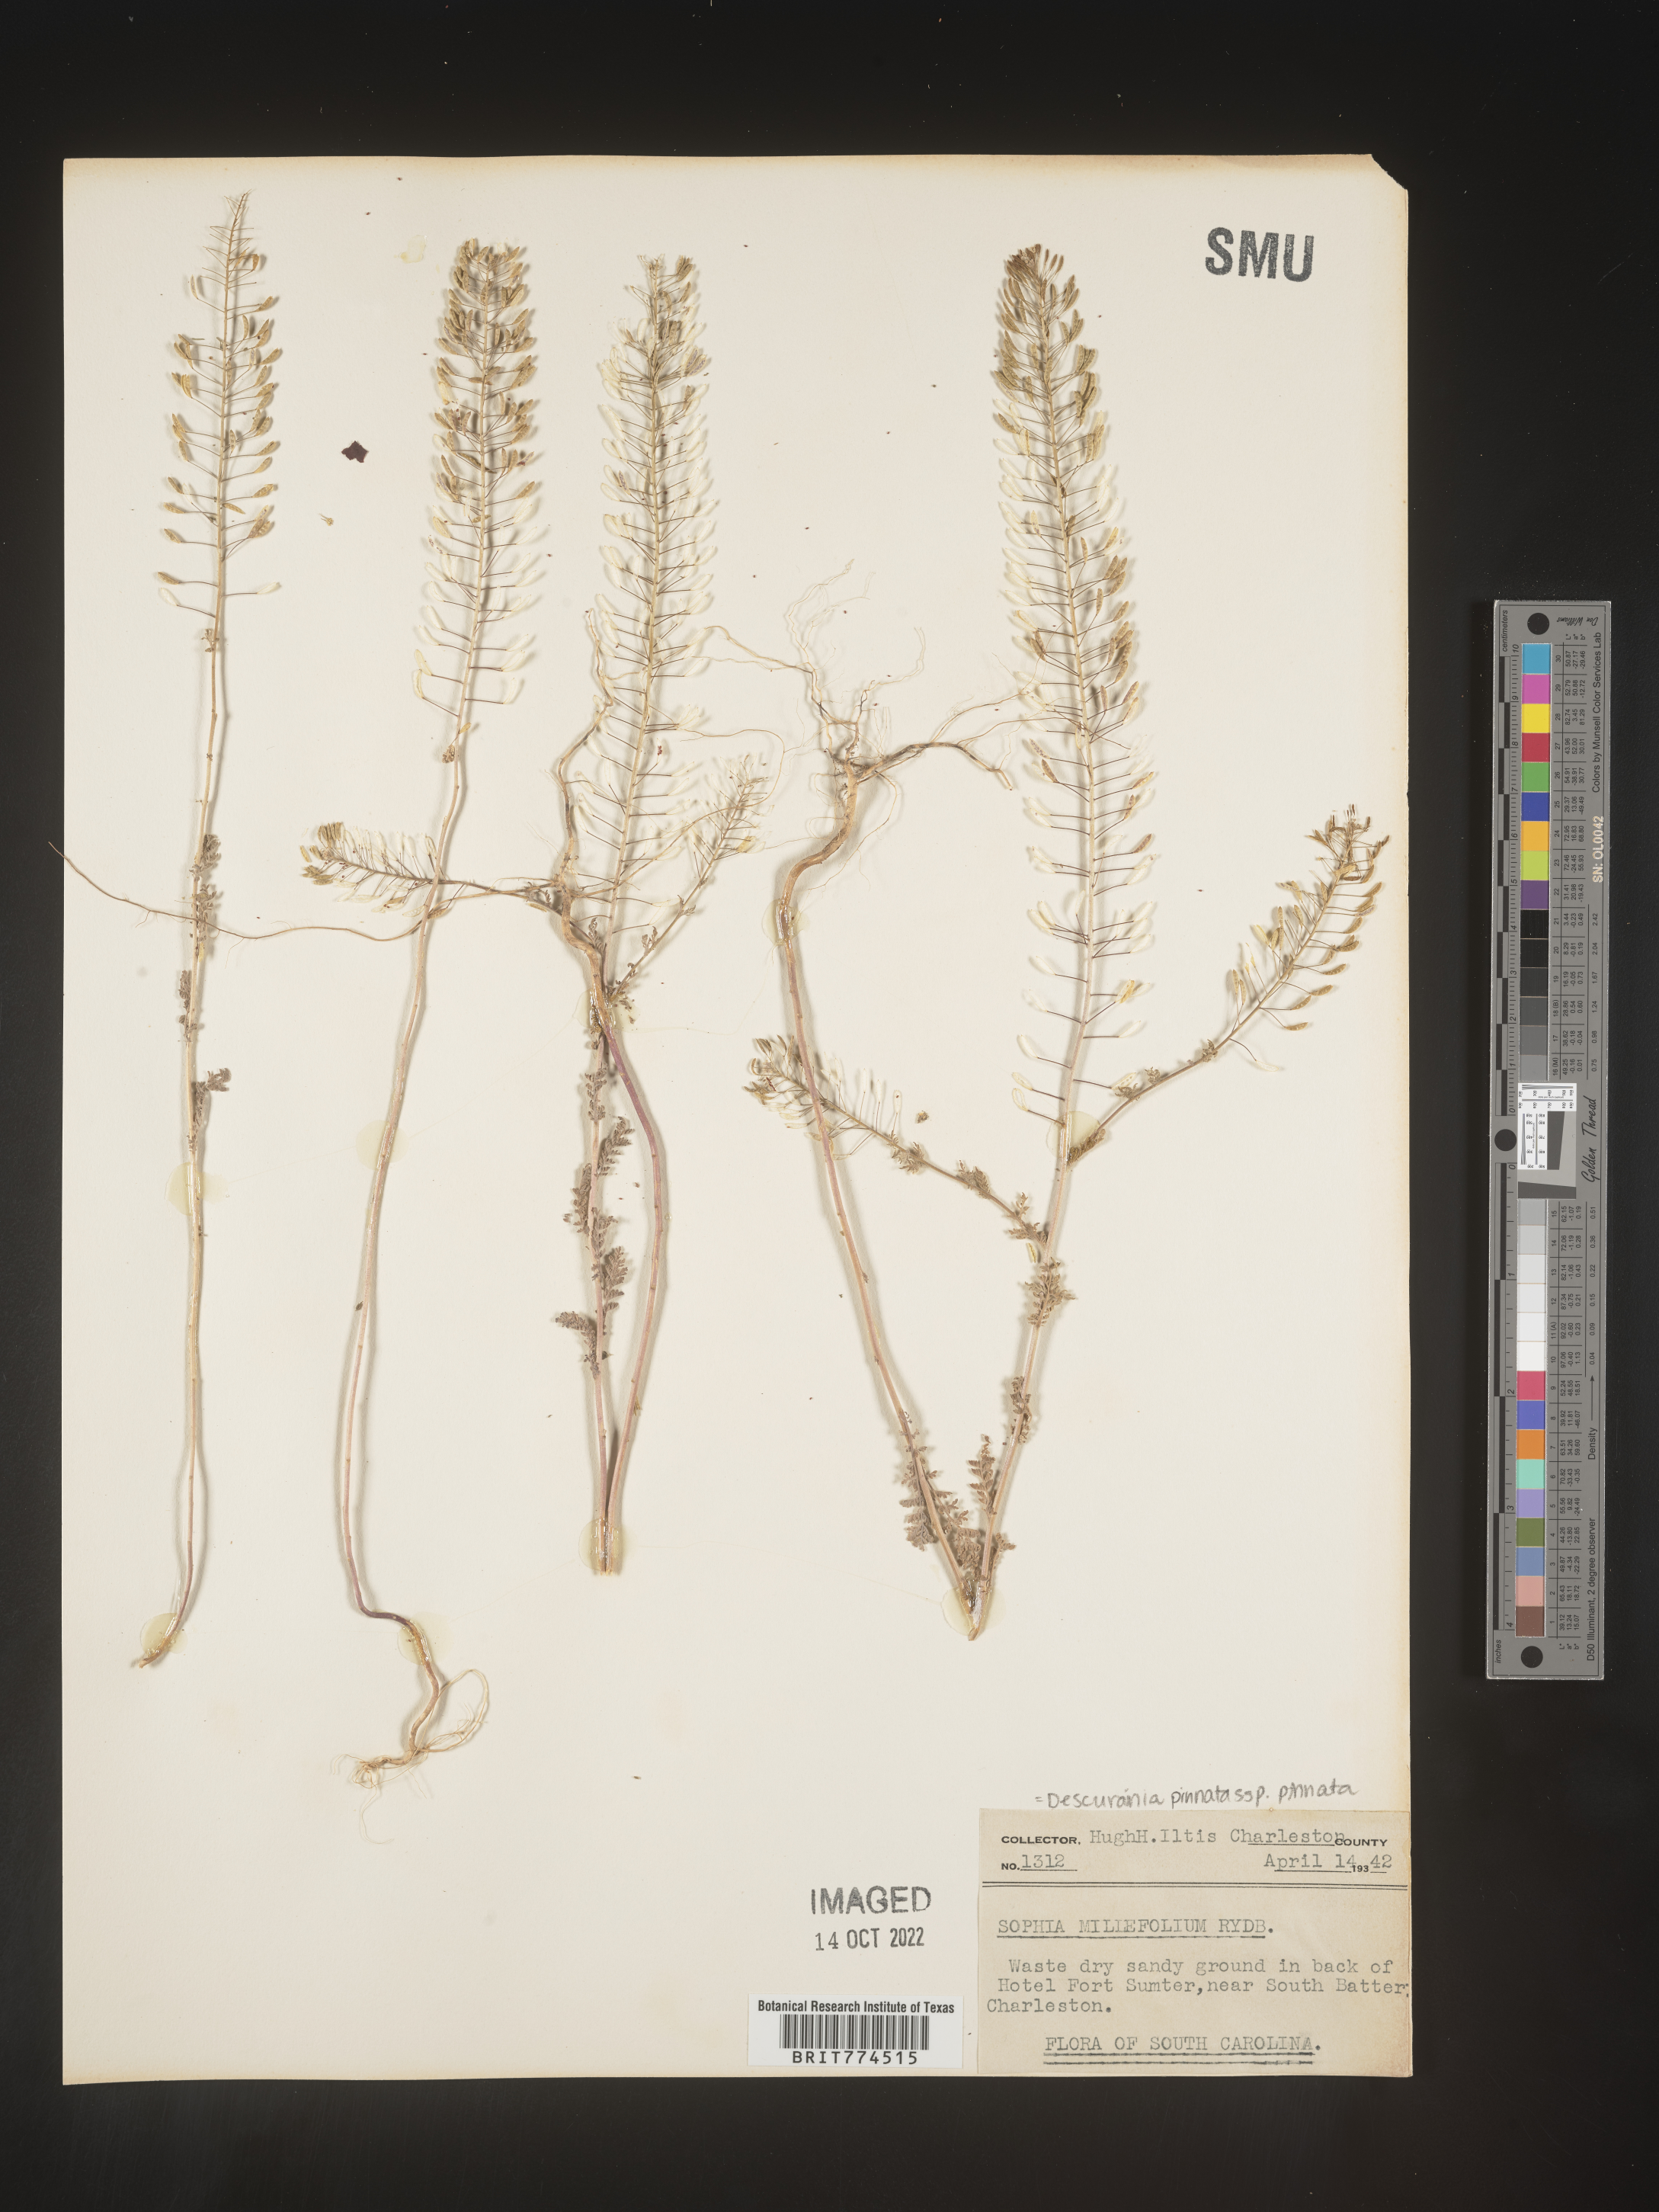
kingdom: Plantae
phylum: Tracheophyta
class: Magnoliopsida
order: Brassicales
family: Brassicaceae
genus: Descurainia
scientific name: Descurainia pinnata
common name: Western tansy mustard
